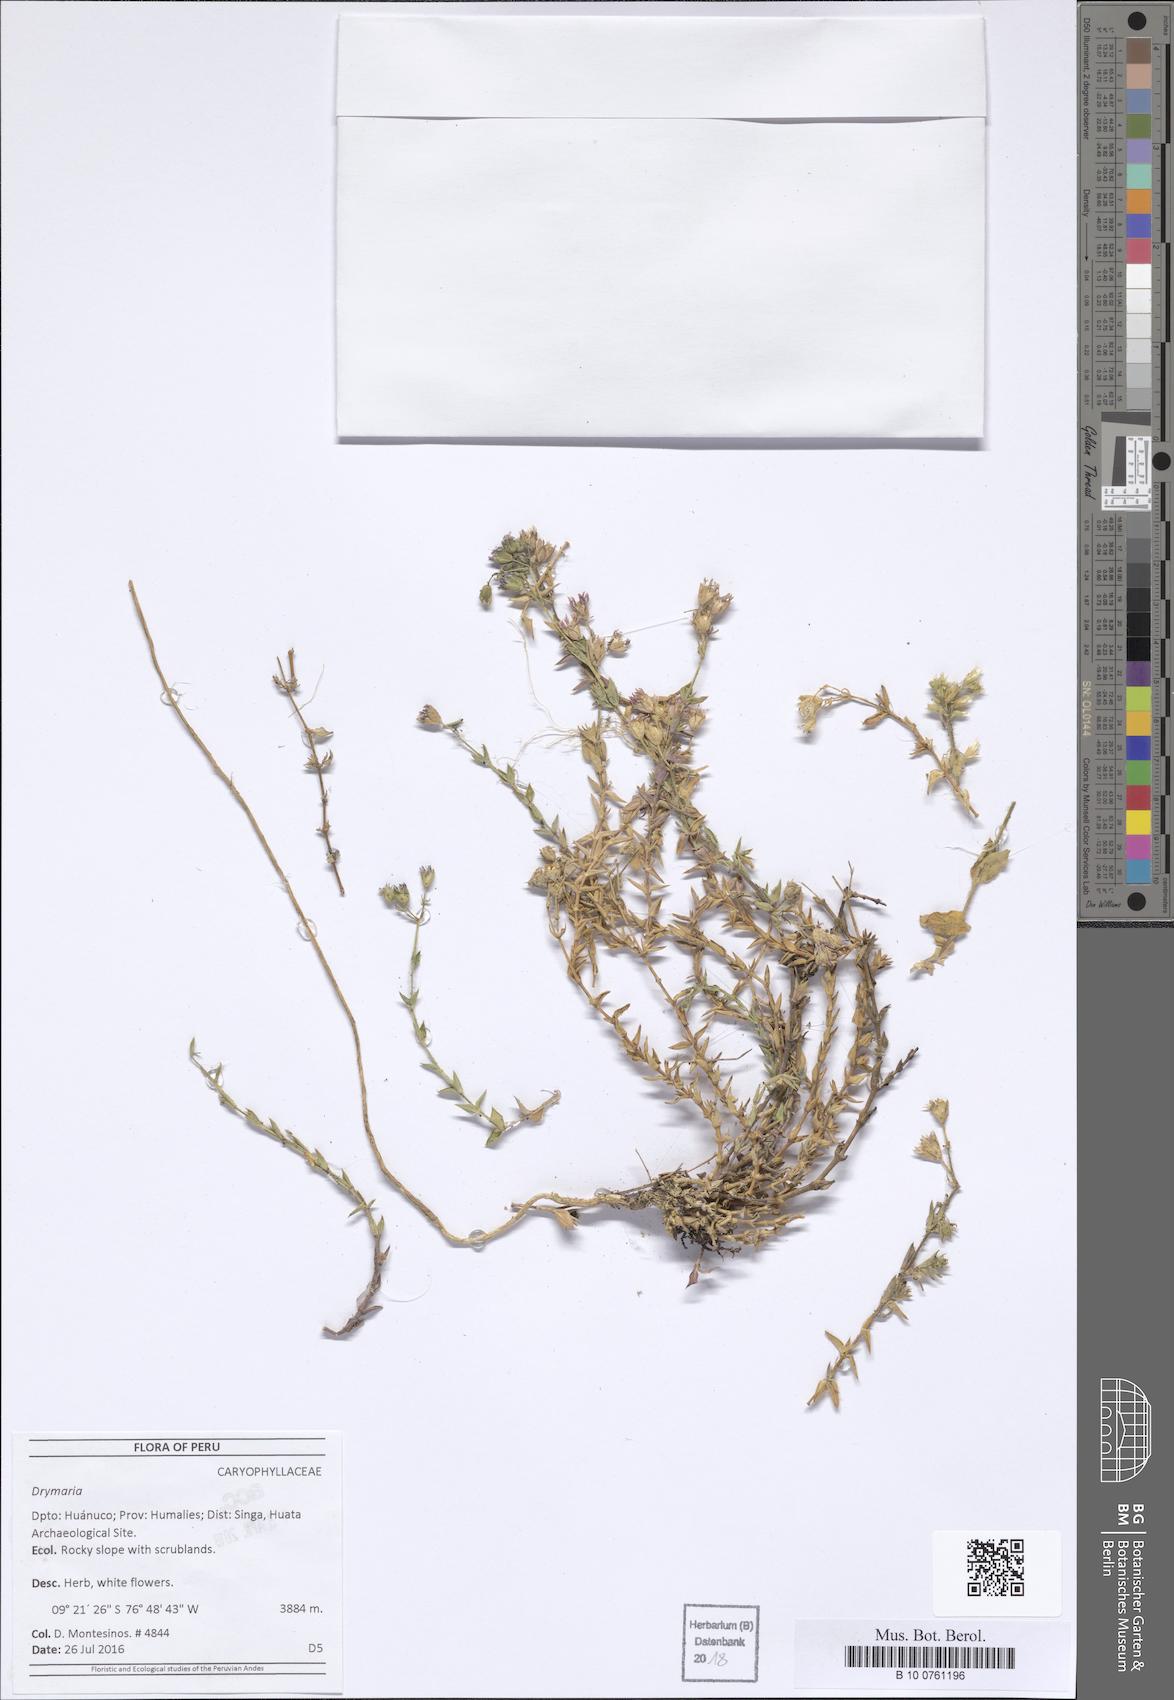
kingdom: Plantae
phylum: Tracheophyta
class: Magnoliopsida
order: Caryophyllales
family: Caryophyllaceae
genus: Drymaria
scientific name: Drymaria
